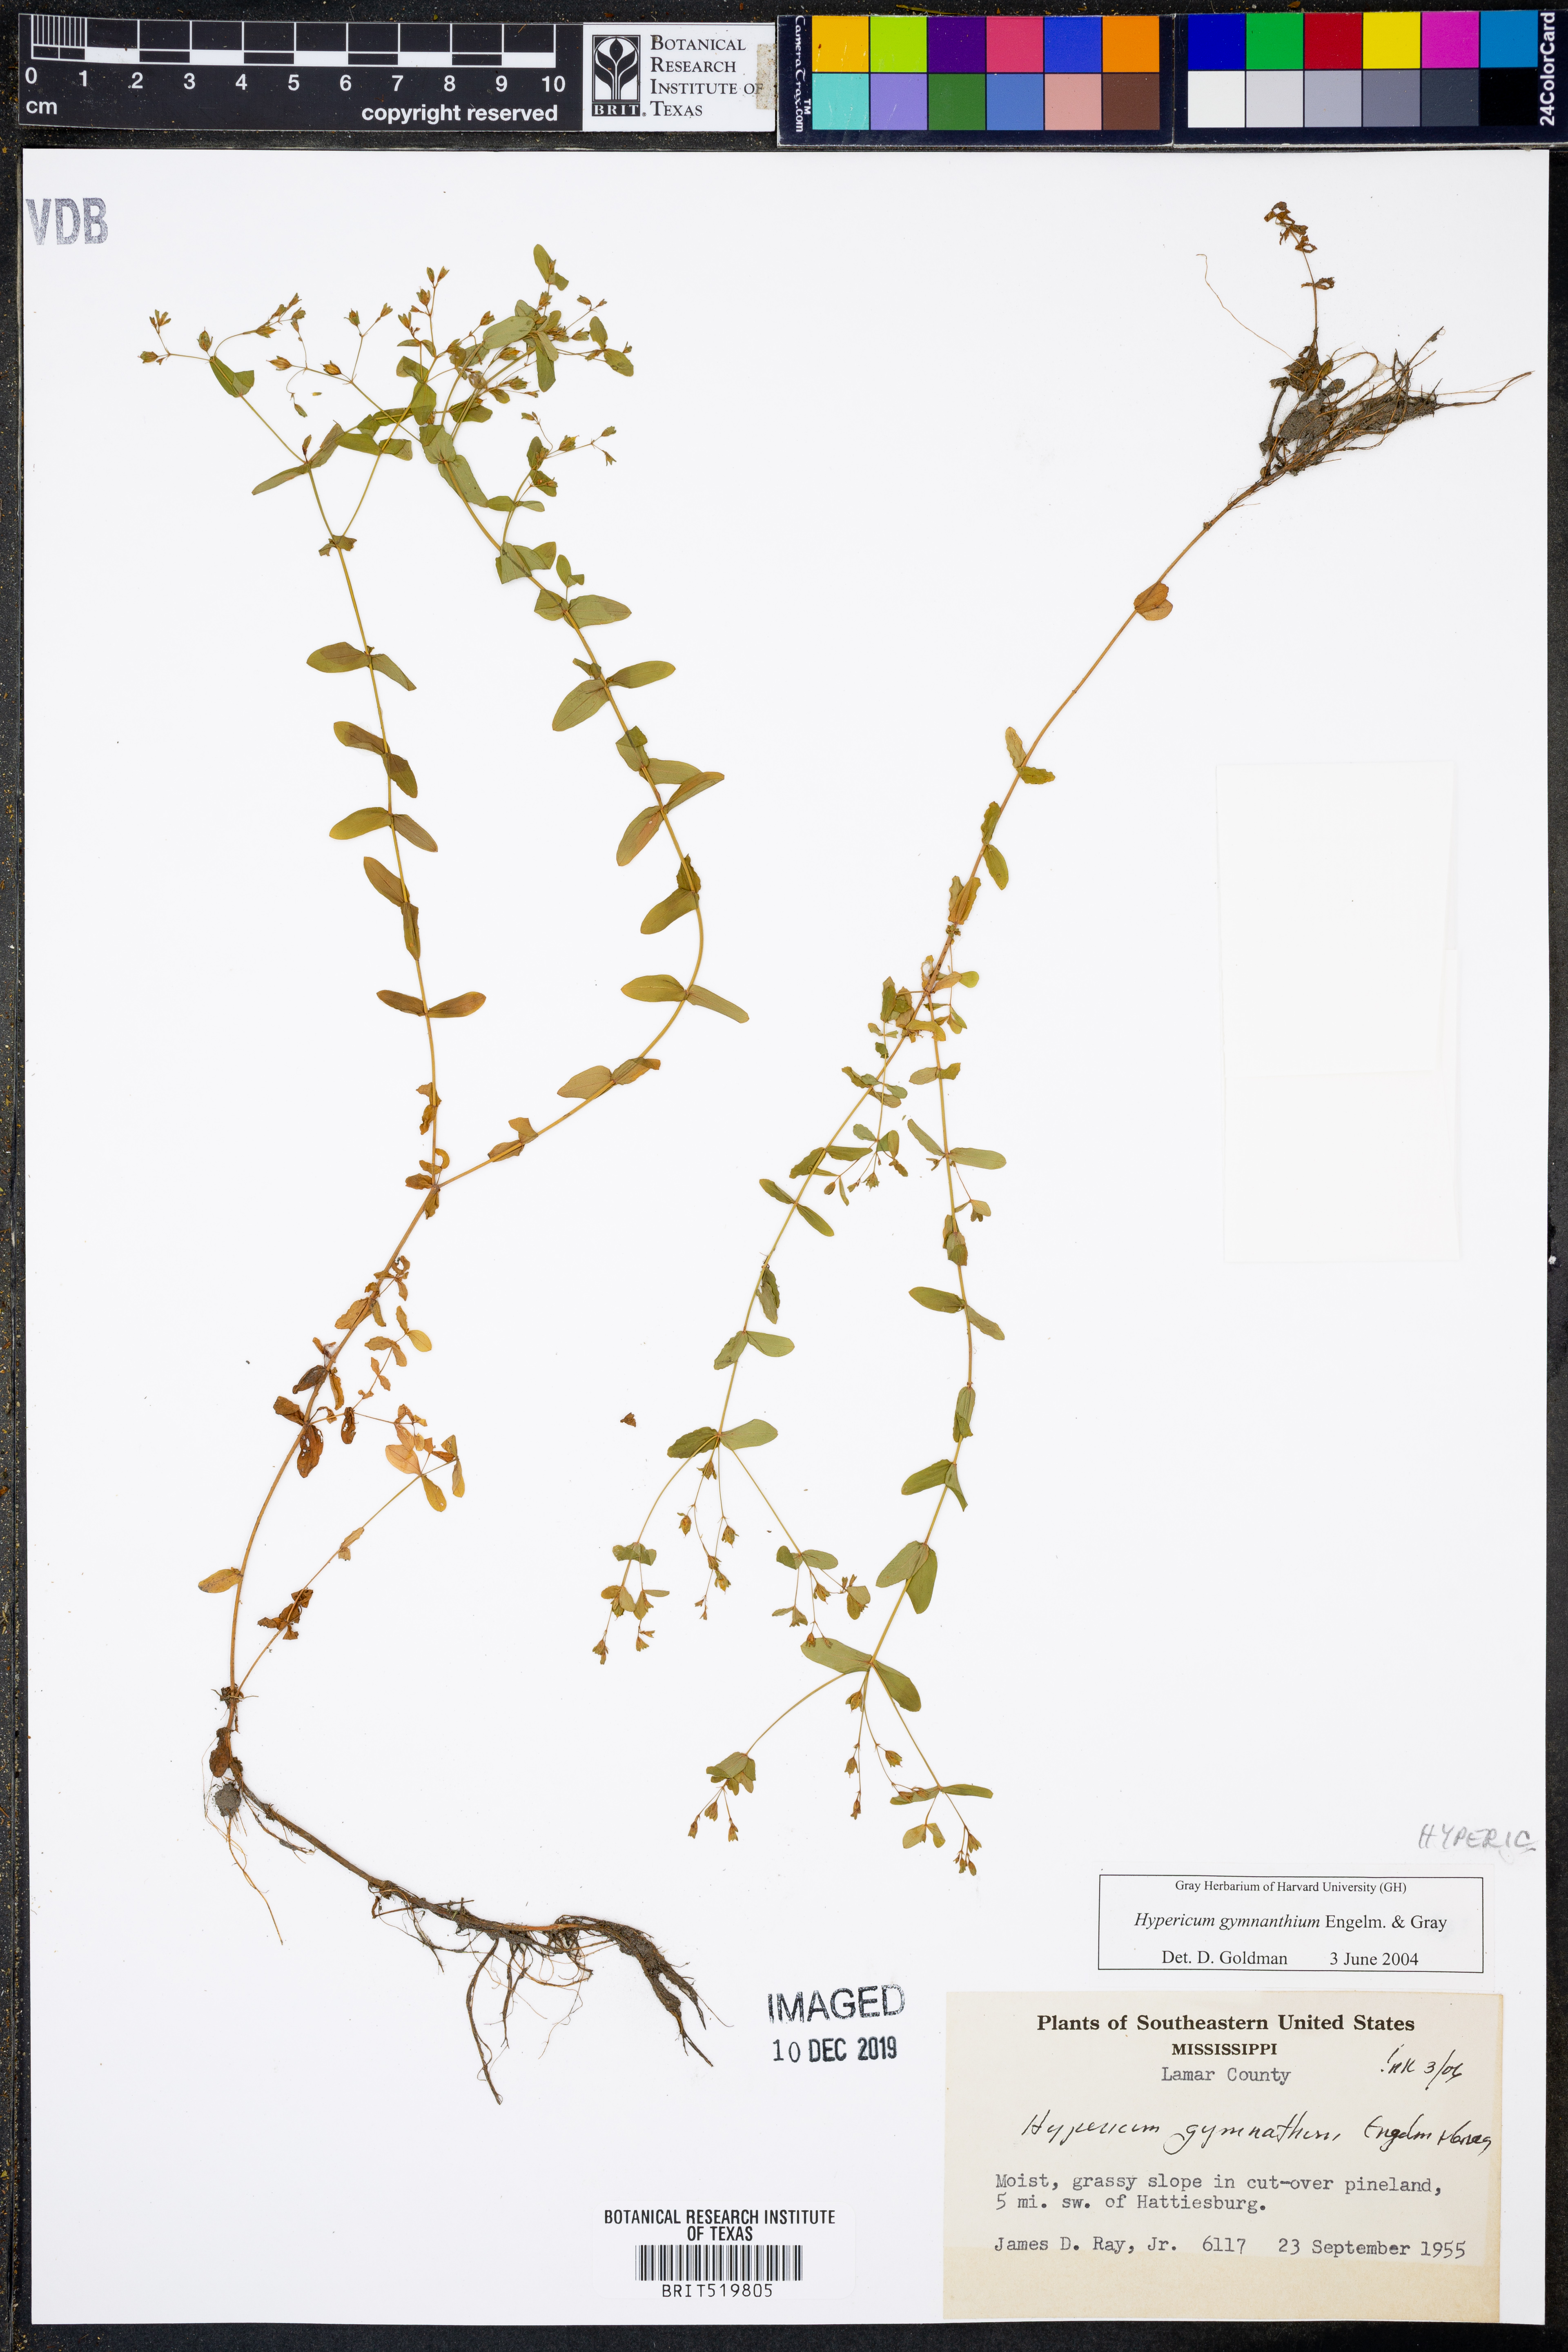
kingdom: Plantae
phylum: Tracheophyta
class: Magnoliopsida
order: Malpighiales
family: Hypericaceae
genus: Hypericum
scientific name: Hypericum gymnanthum
